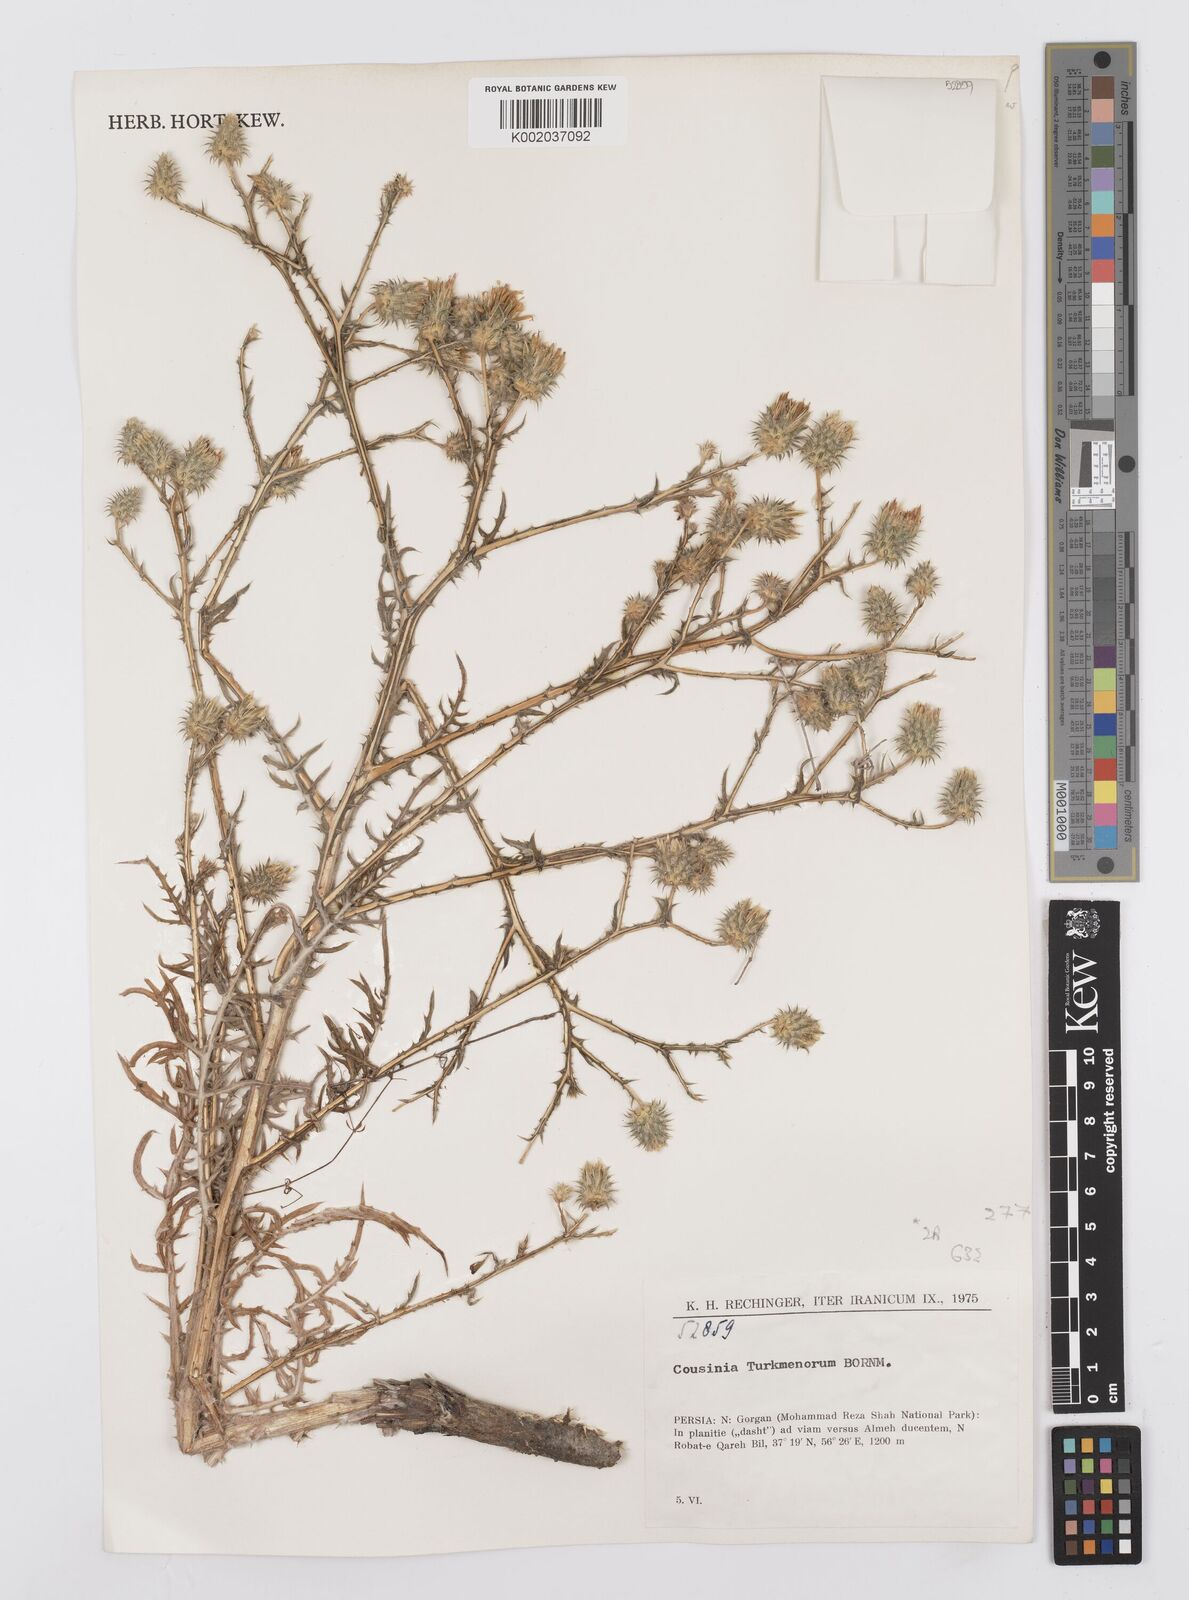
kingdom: Plantae
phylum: Tracheophyta
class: Magnoliopsida
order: Asterales
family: Asteraceae
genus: Cousinia
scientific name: Cousinia turkmenorum
